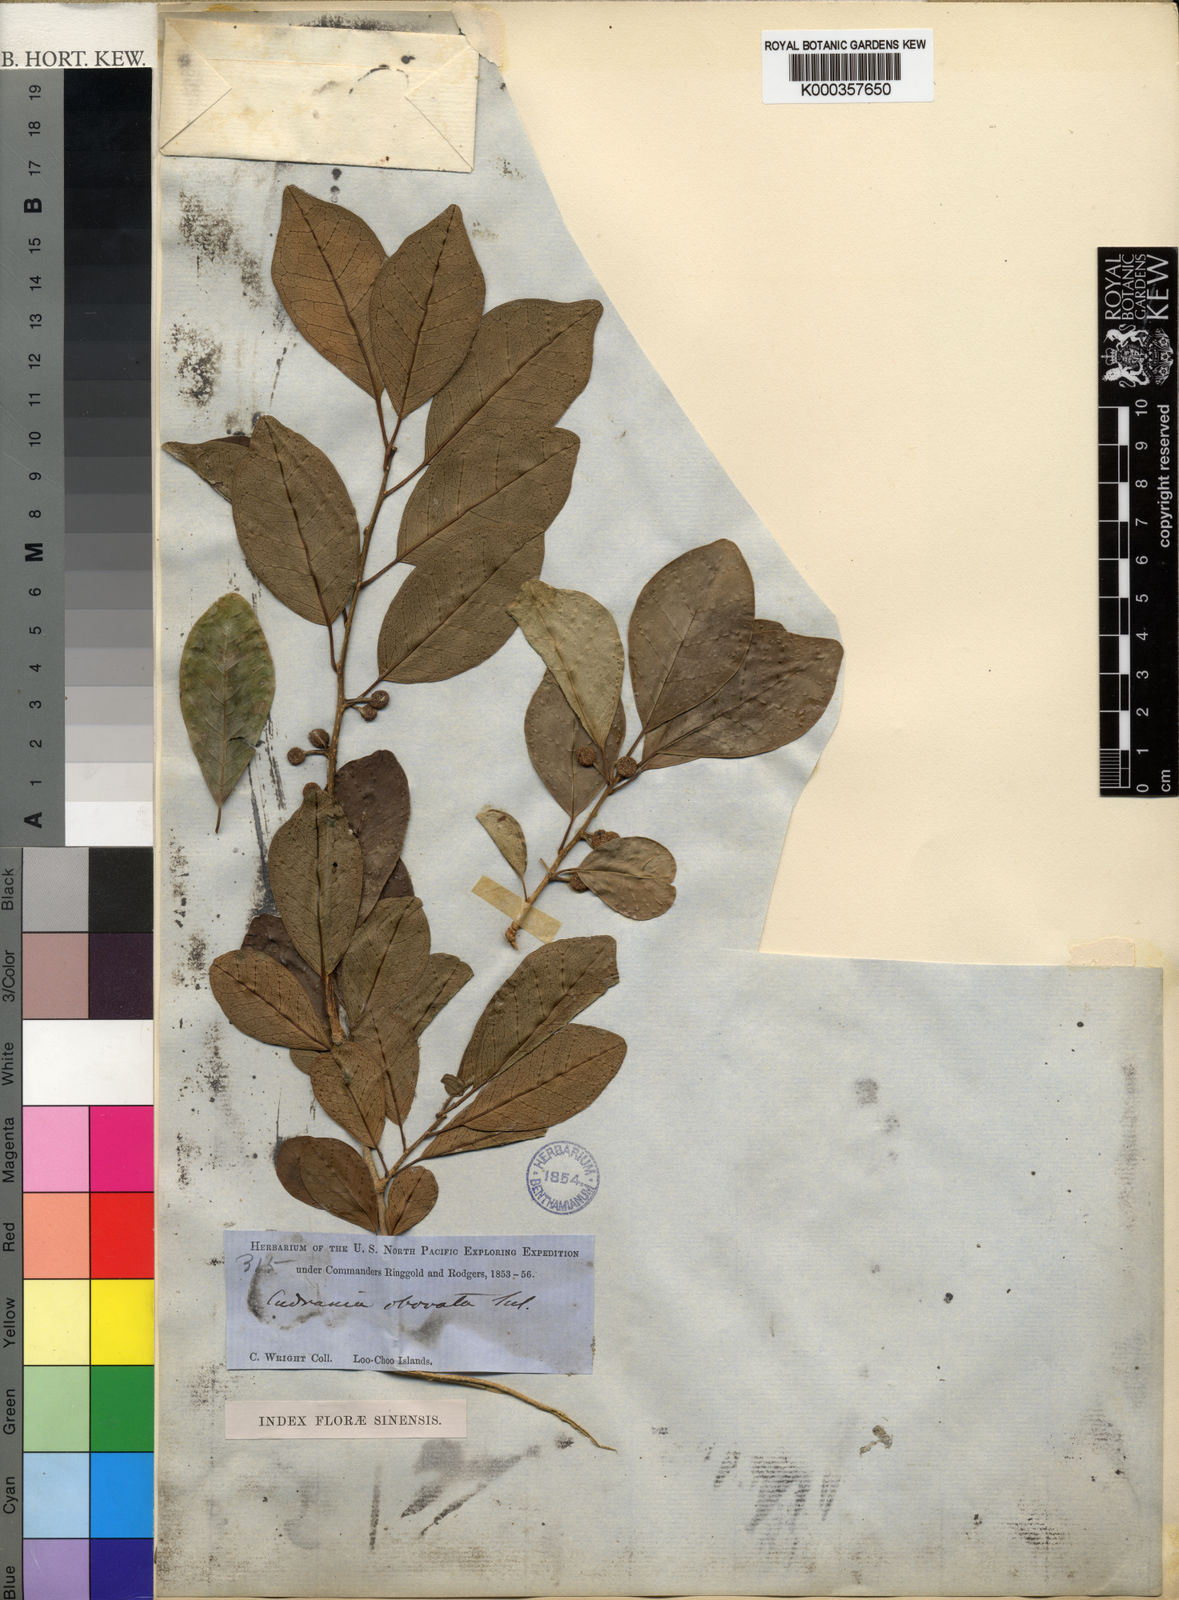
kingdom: Plantae
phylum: Tracheophyta
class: Magnoliopsida
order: Rosales
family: Moraceae
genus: Maclura
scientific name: Maclura
